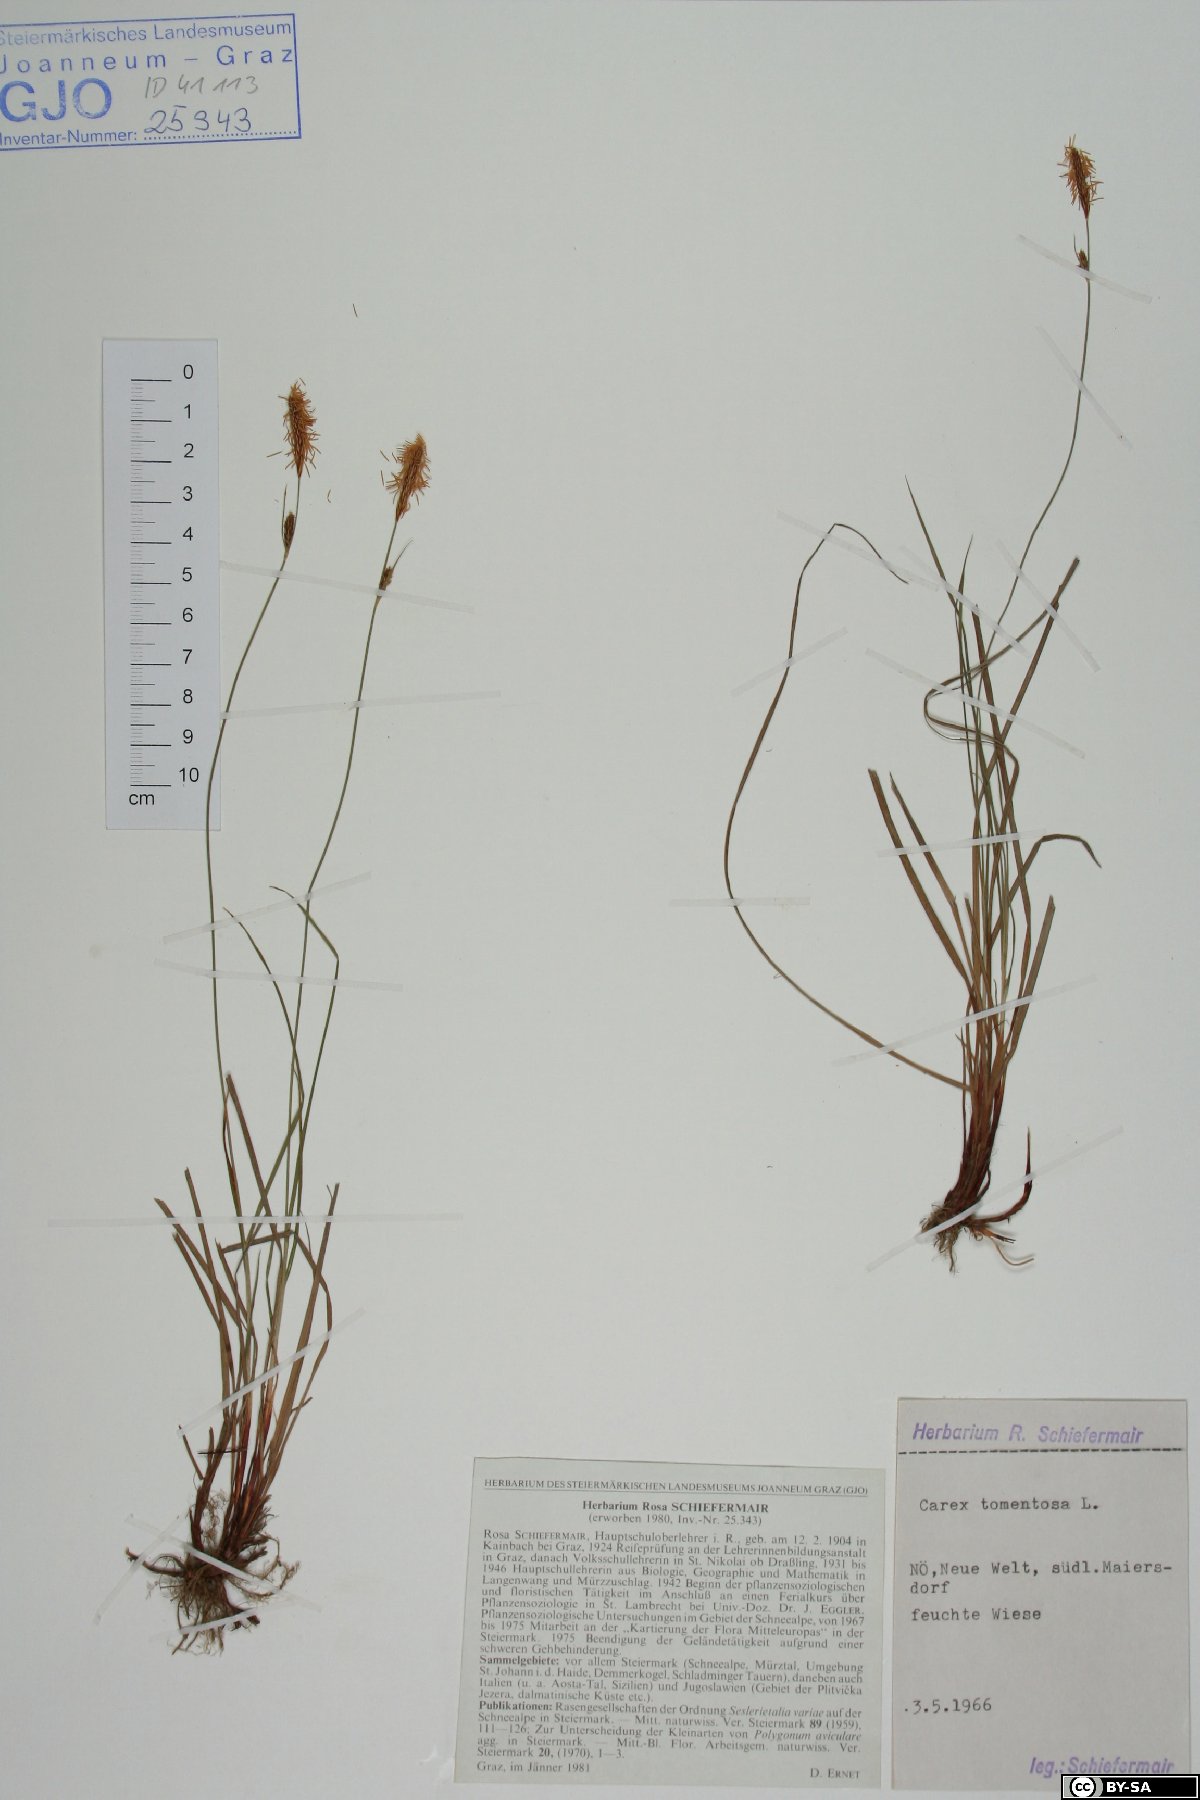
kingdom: Plantae
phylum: Tracheophyta
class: Liliopsida
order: Poales
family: Cyperaceae
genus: Carex
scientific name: Carex tomentosa
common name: Downy-fruited sedge
